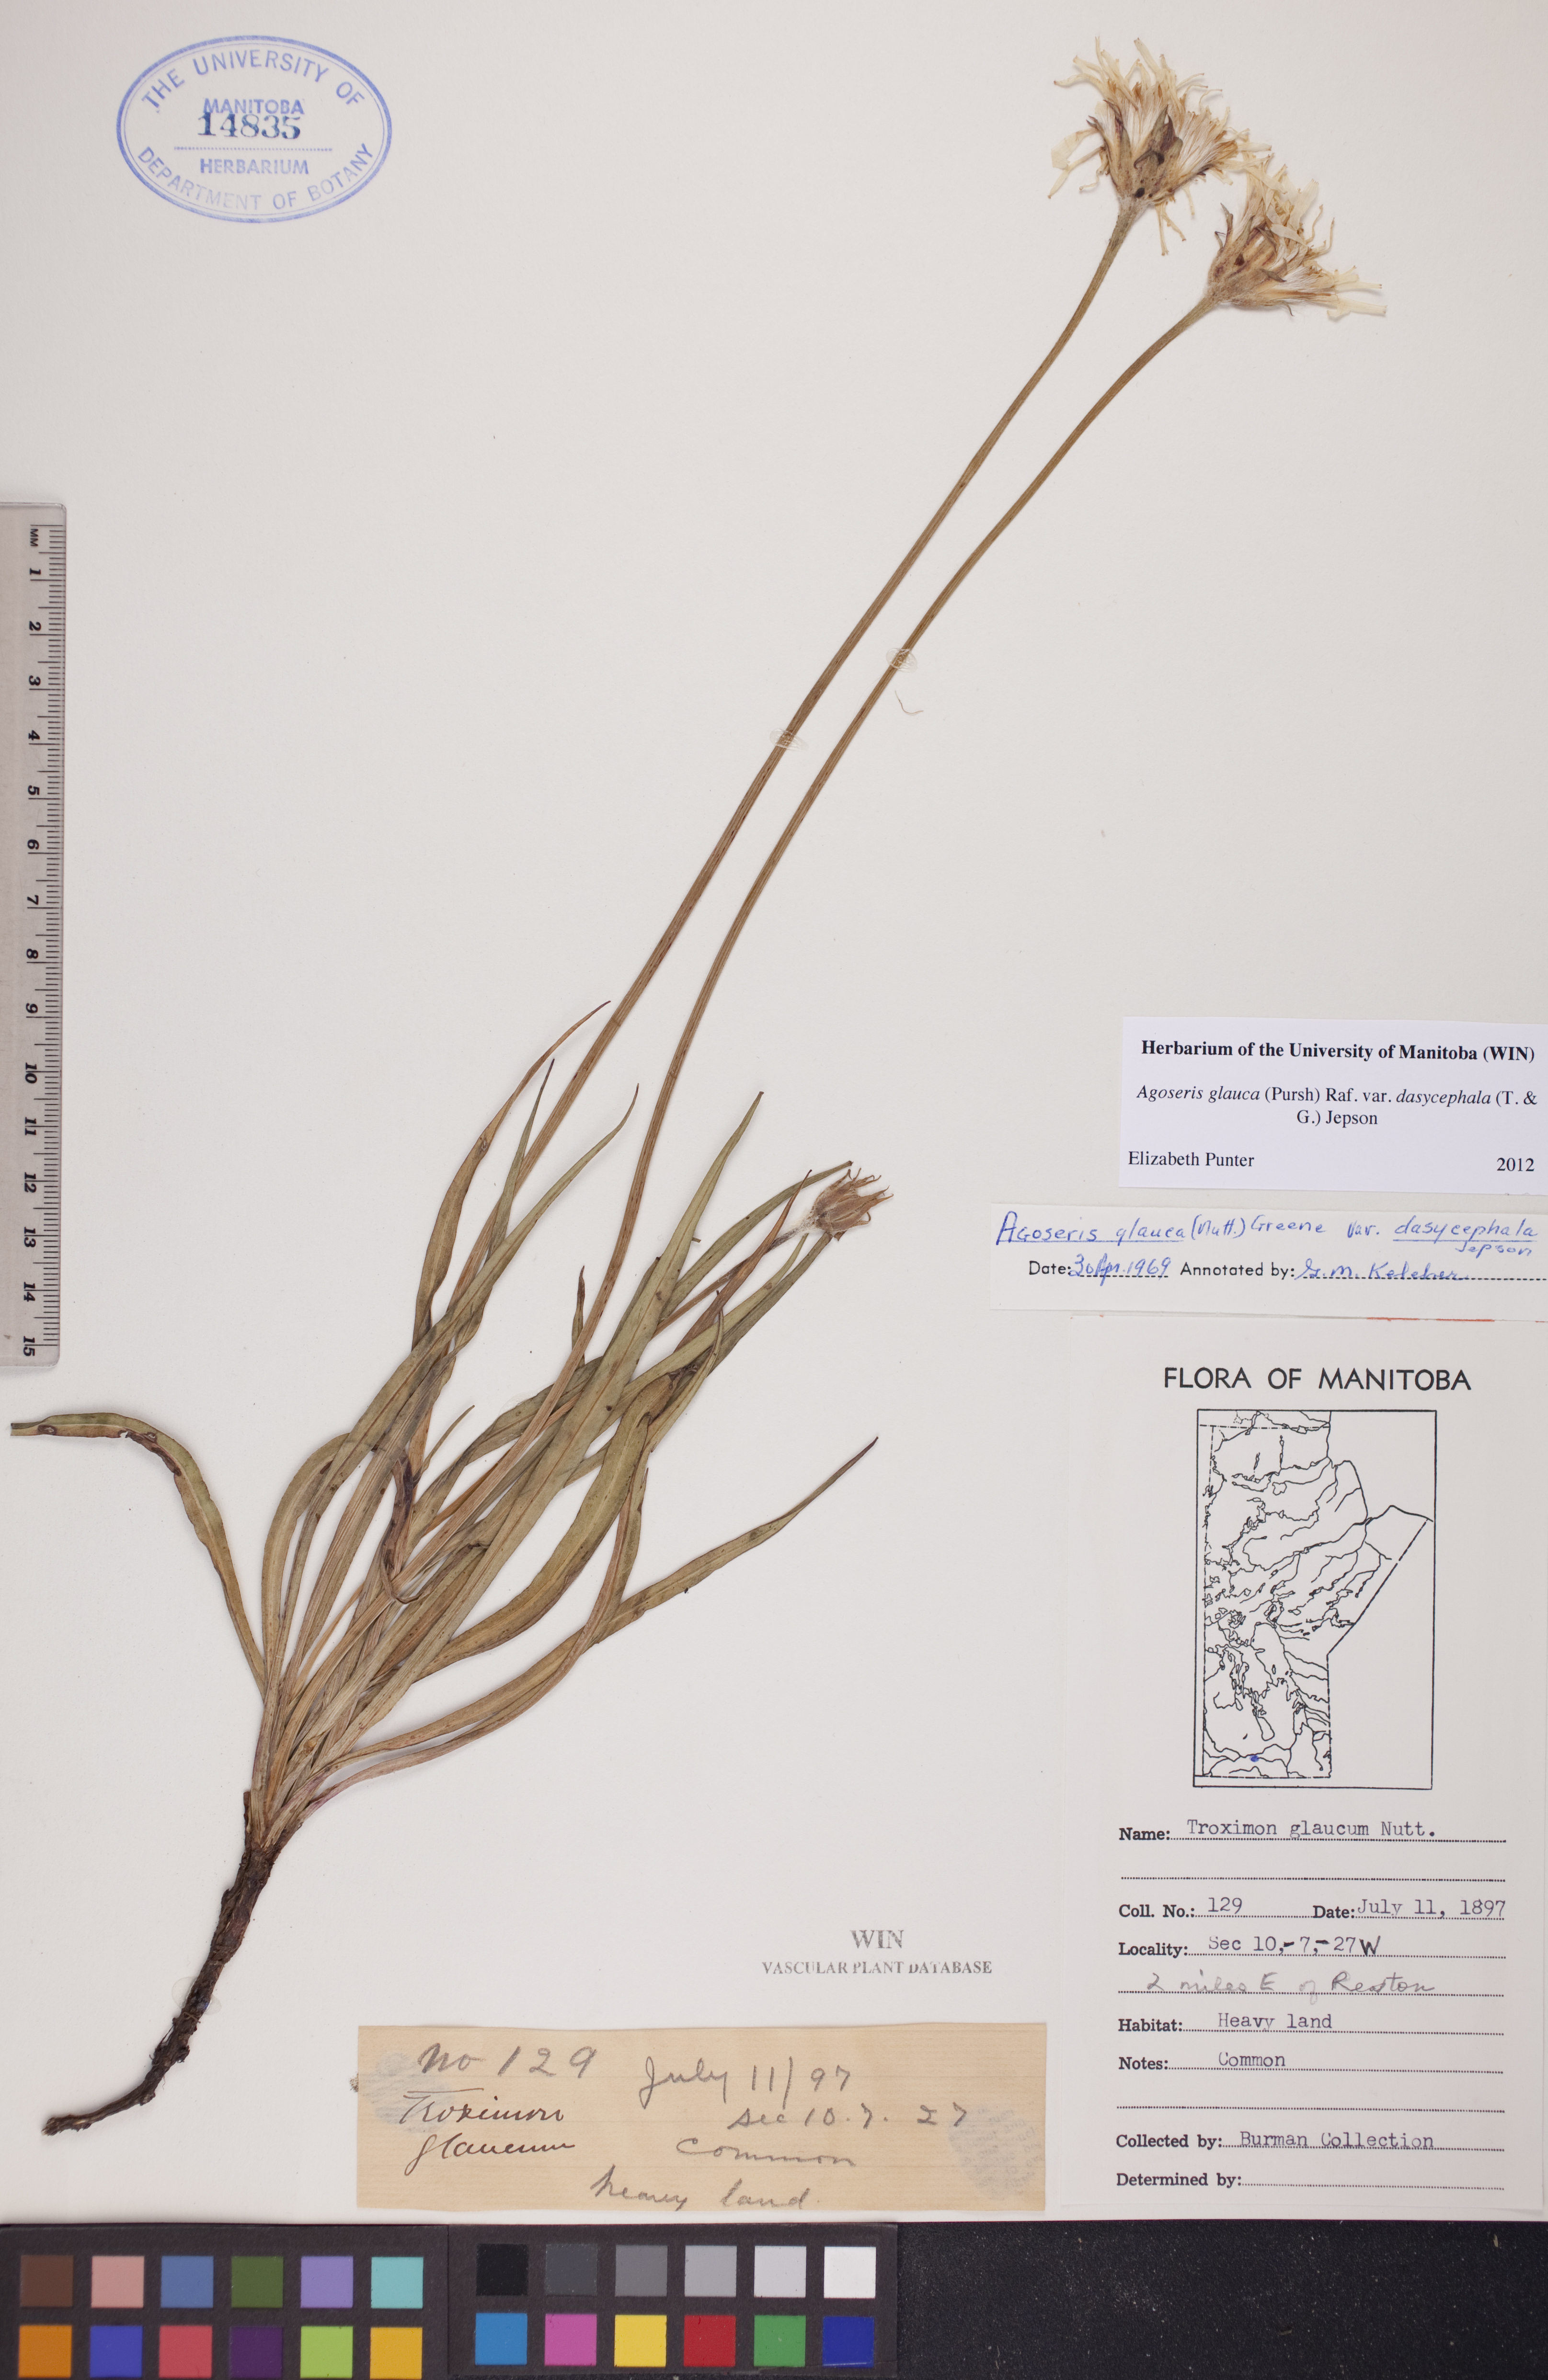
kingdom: Plantae
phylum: Tracheophyta
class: Magnoliopsida
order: Asterales
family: Asteraceae
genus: Agoseris
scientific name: Agoseris glauca
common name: Prairie agoseris
